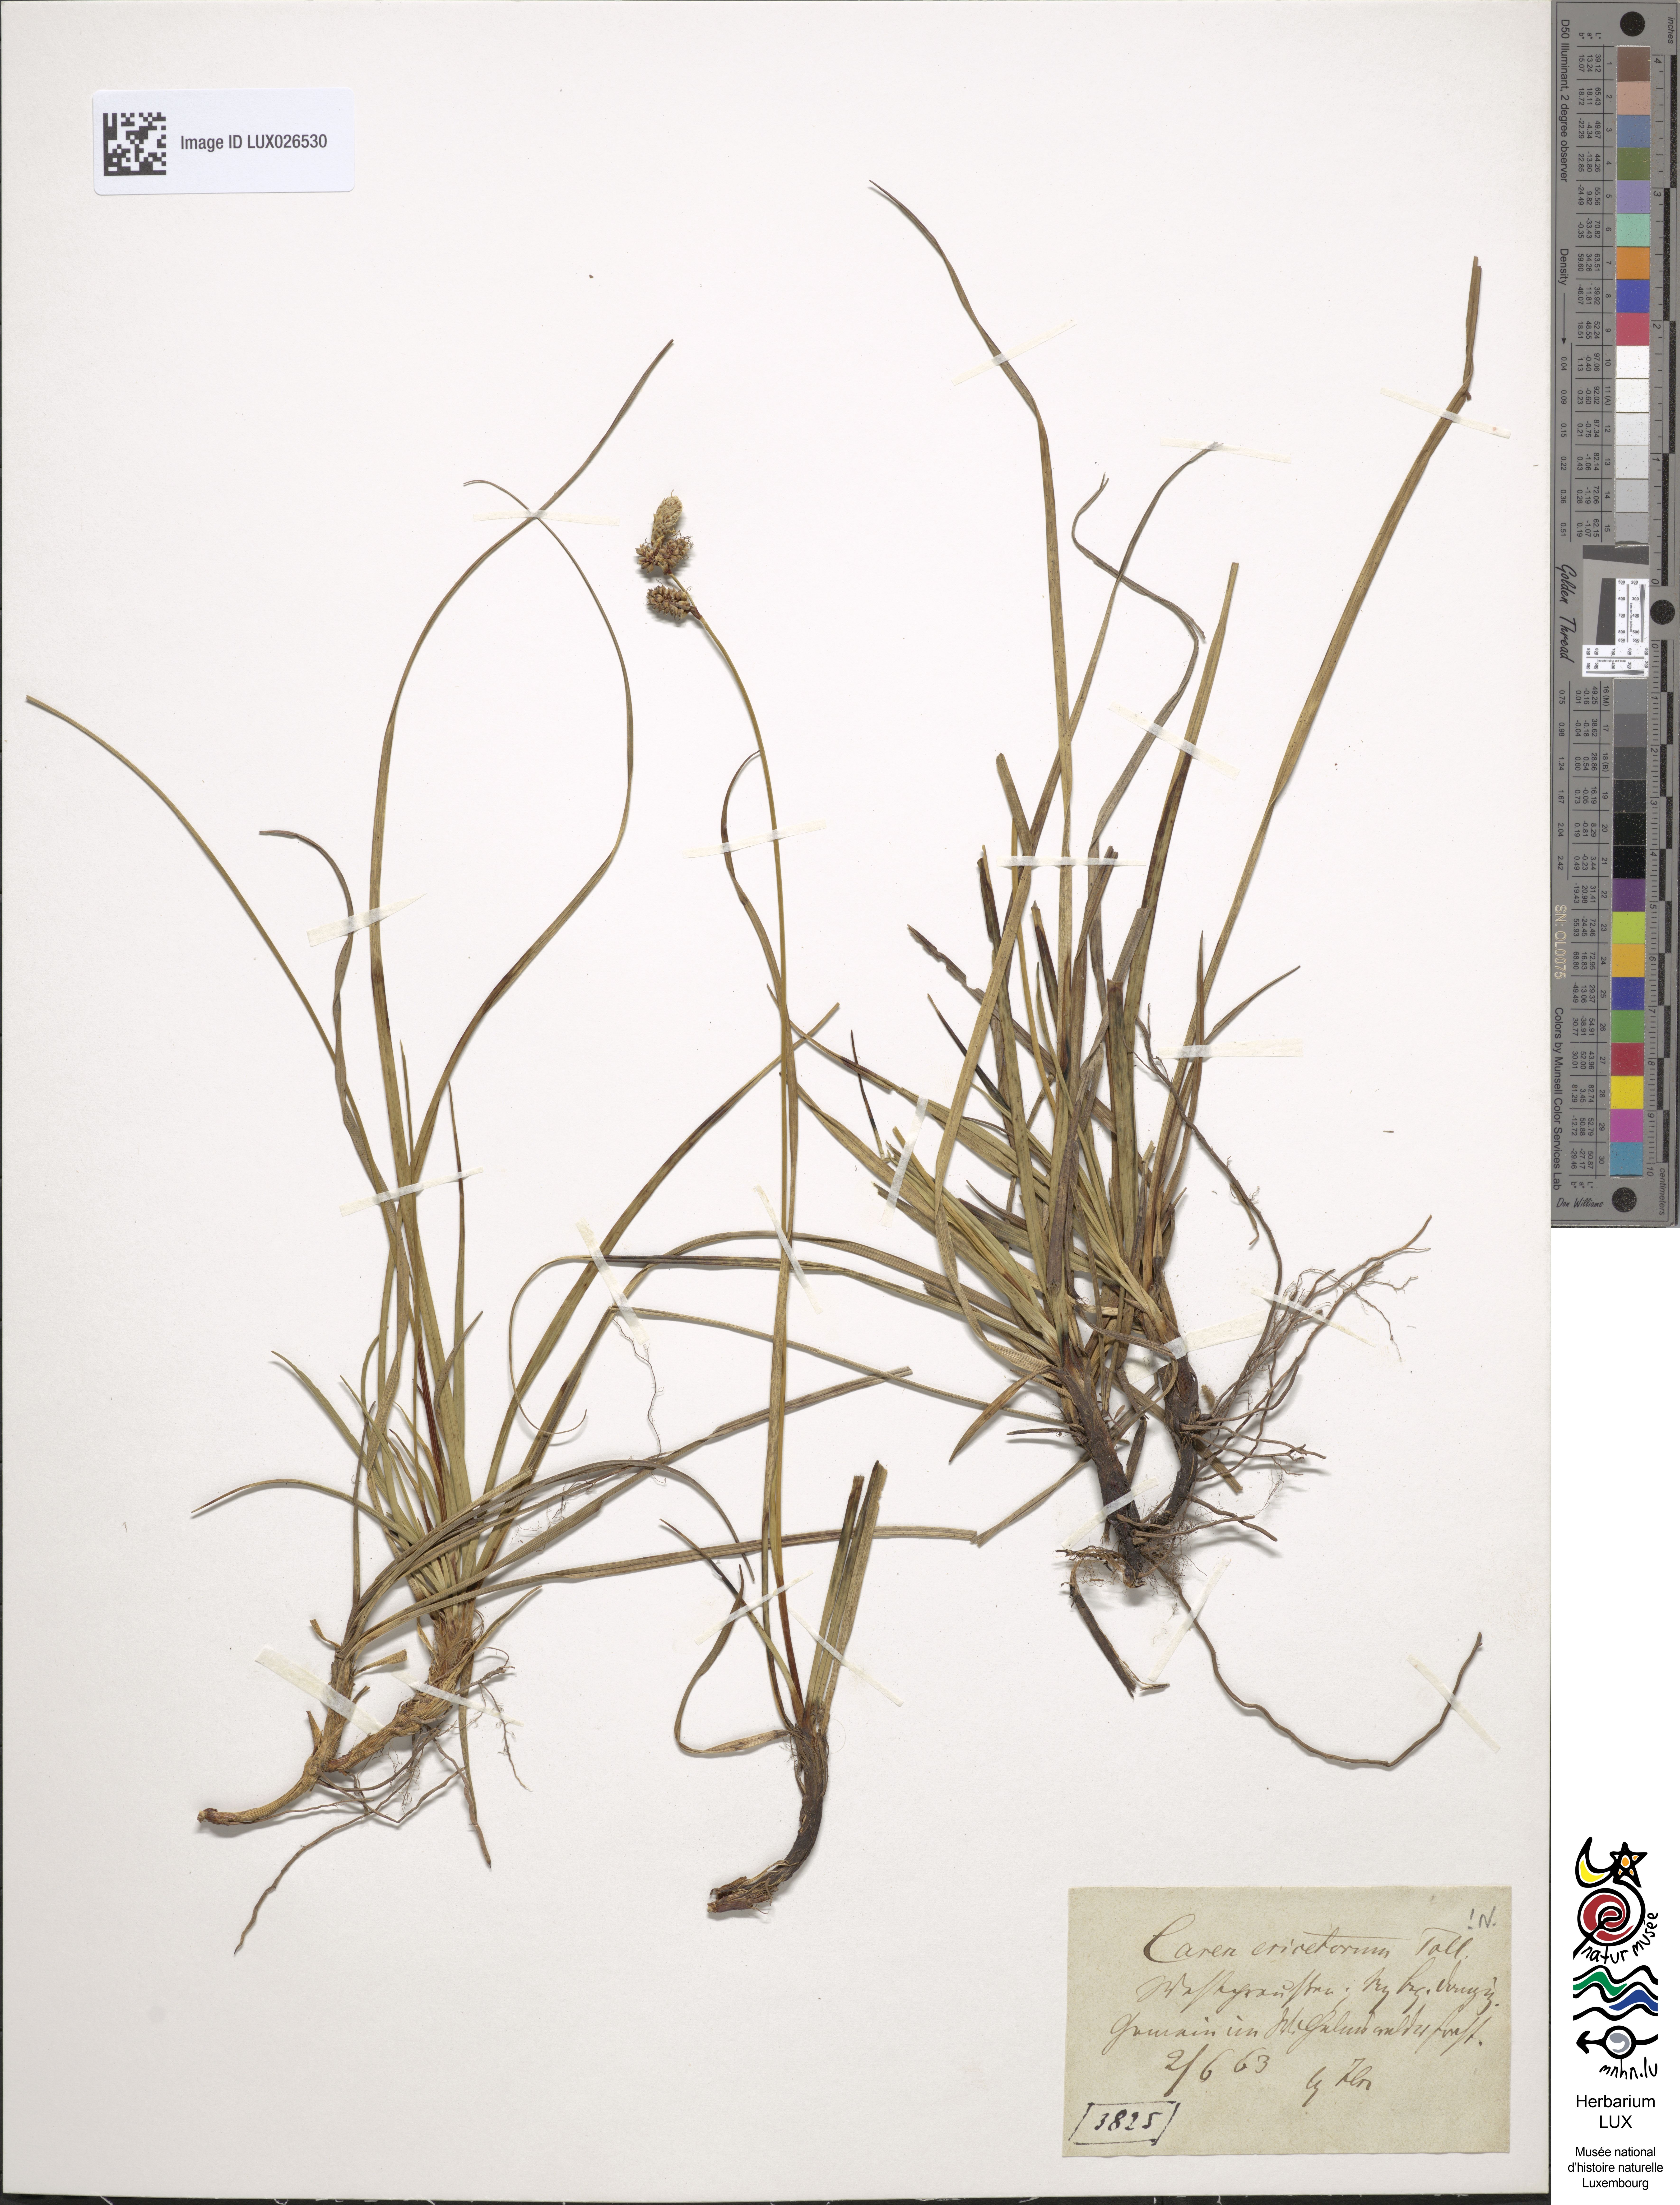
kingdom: Plantae
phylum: Tracheophyta
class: Liliopsida
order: Poales
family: Cyperaceae
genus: Carex
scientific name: Carex ericetorum
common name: Rare spring-sedge
